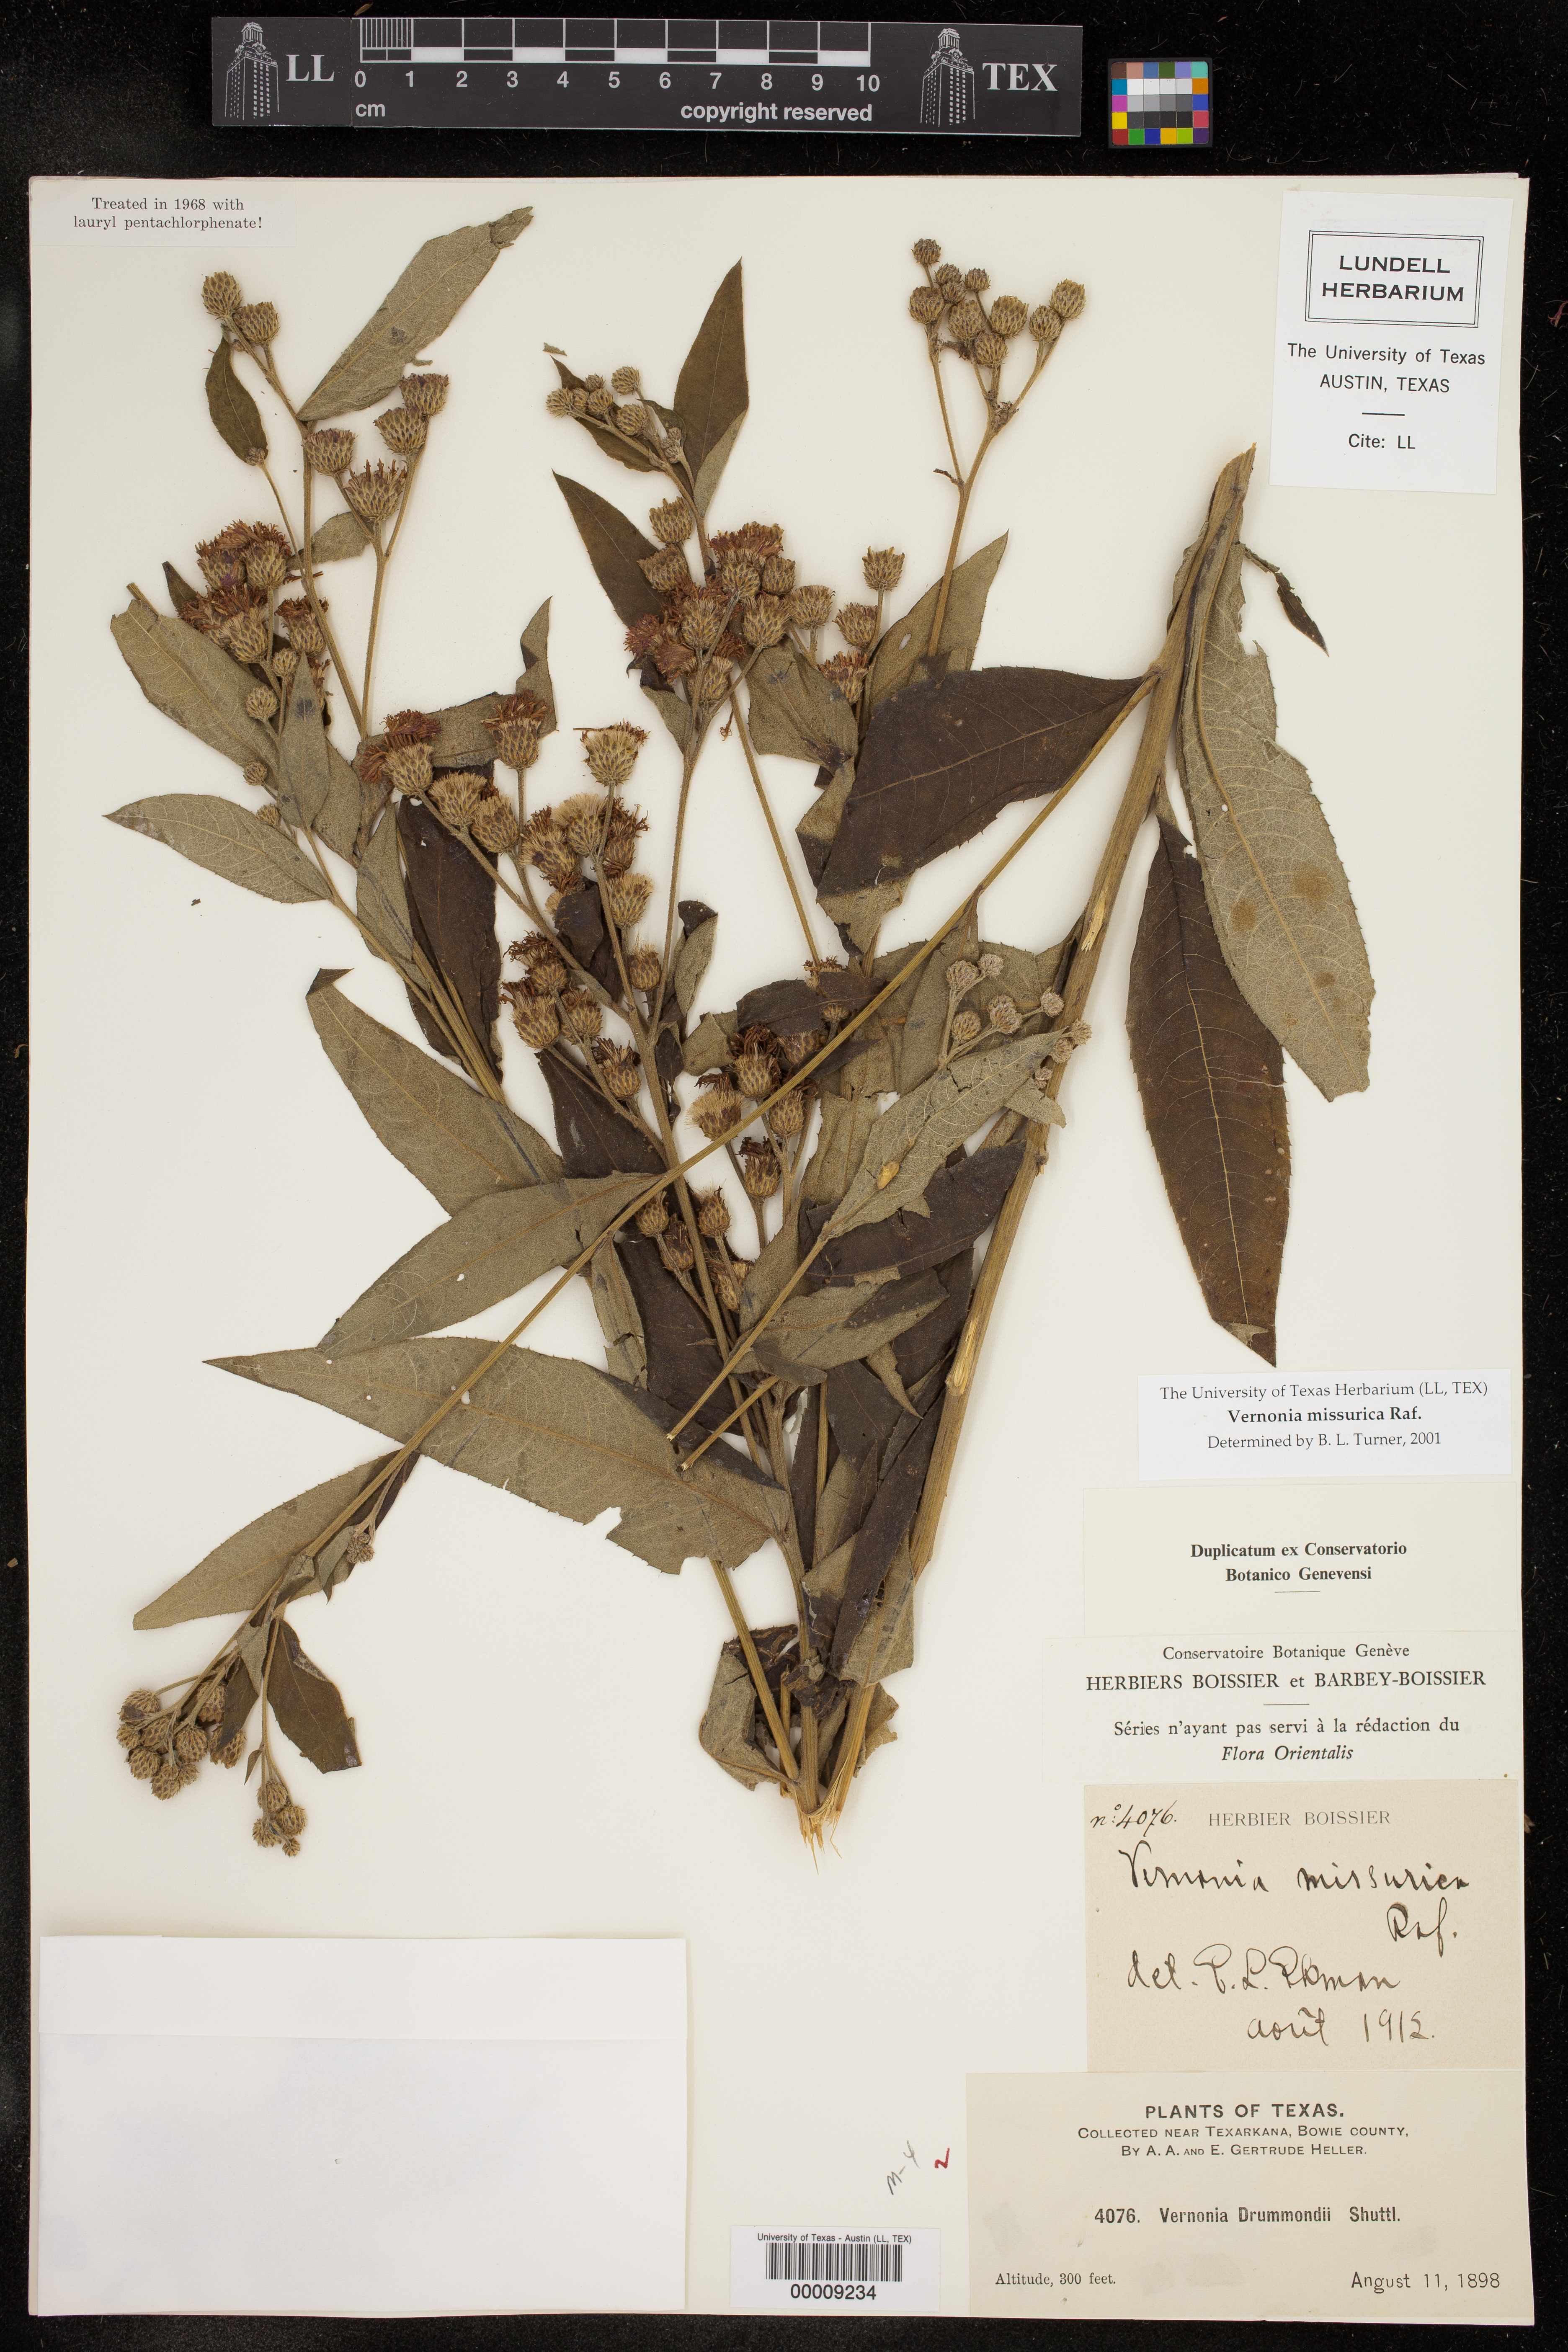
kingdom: Plantae
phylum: Tracheophyta
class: Magnoliopsida
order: Asterales
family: Asteraceae
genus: Vernonia
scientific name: Vernonia missurica
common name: Missouri ironweed
